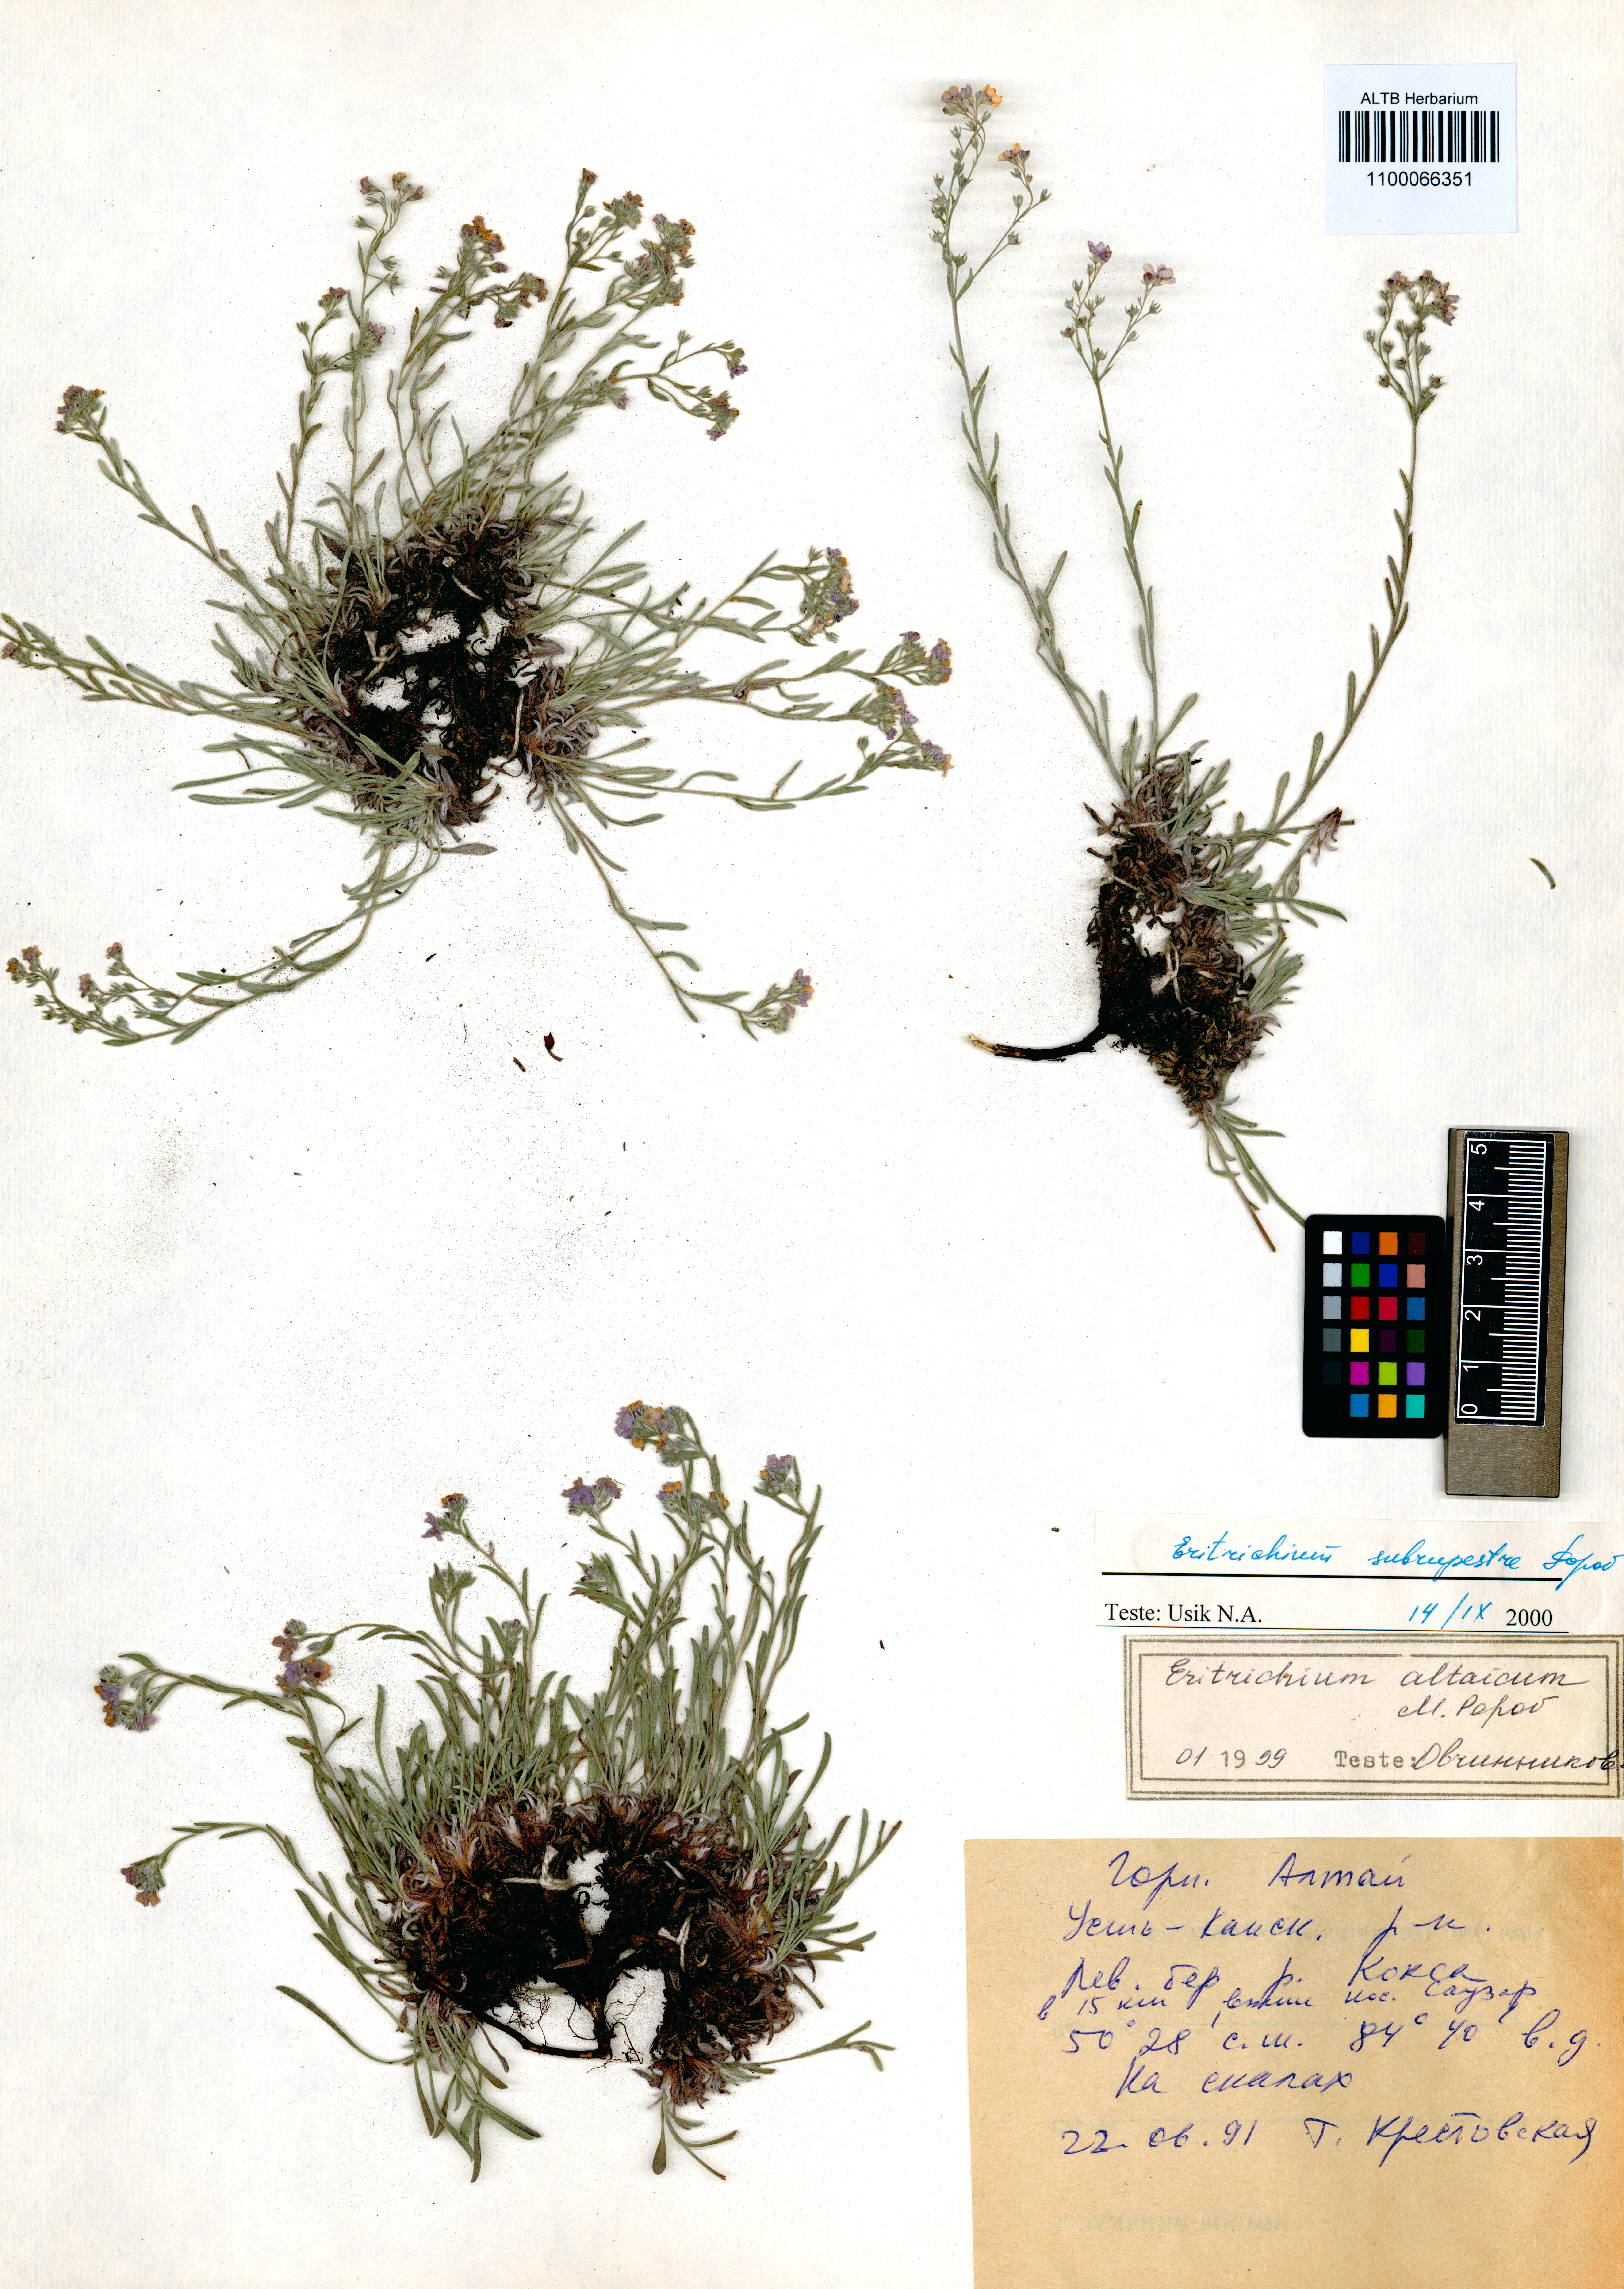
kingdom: Plantae
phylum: Tracheophyta
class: Magnoliopsida
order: Boraginales
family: Boraginaceae
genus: Eritrichium
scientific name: Eritrichium pauciflorum
